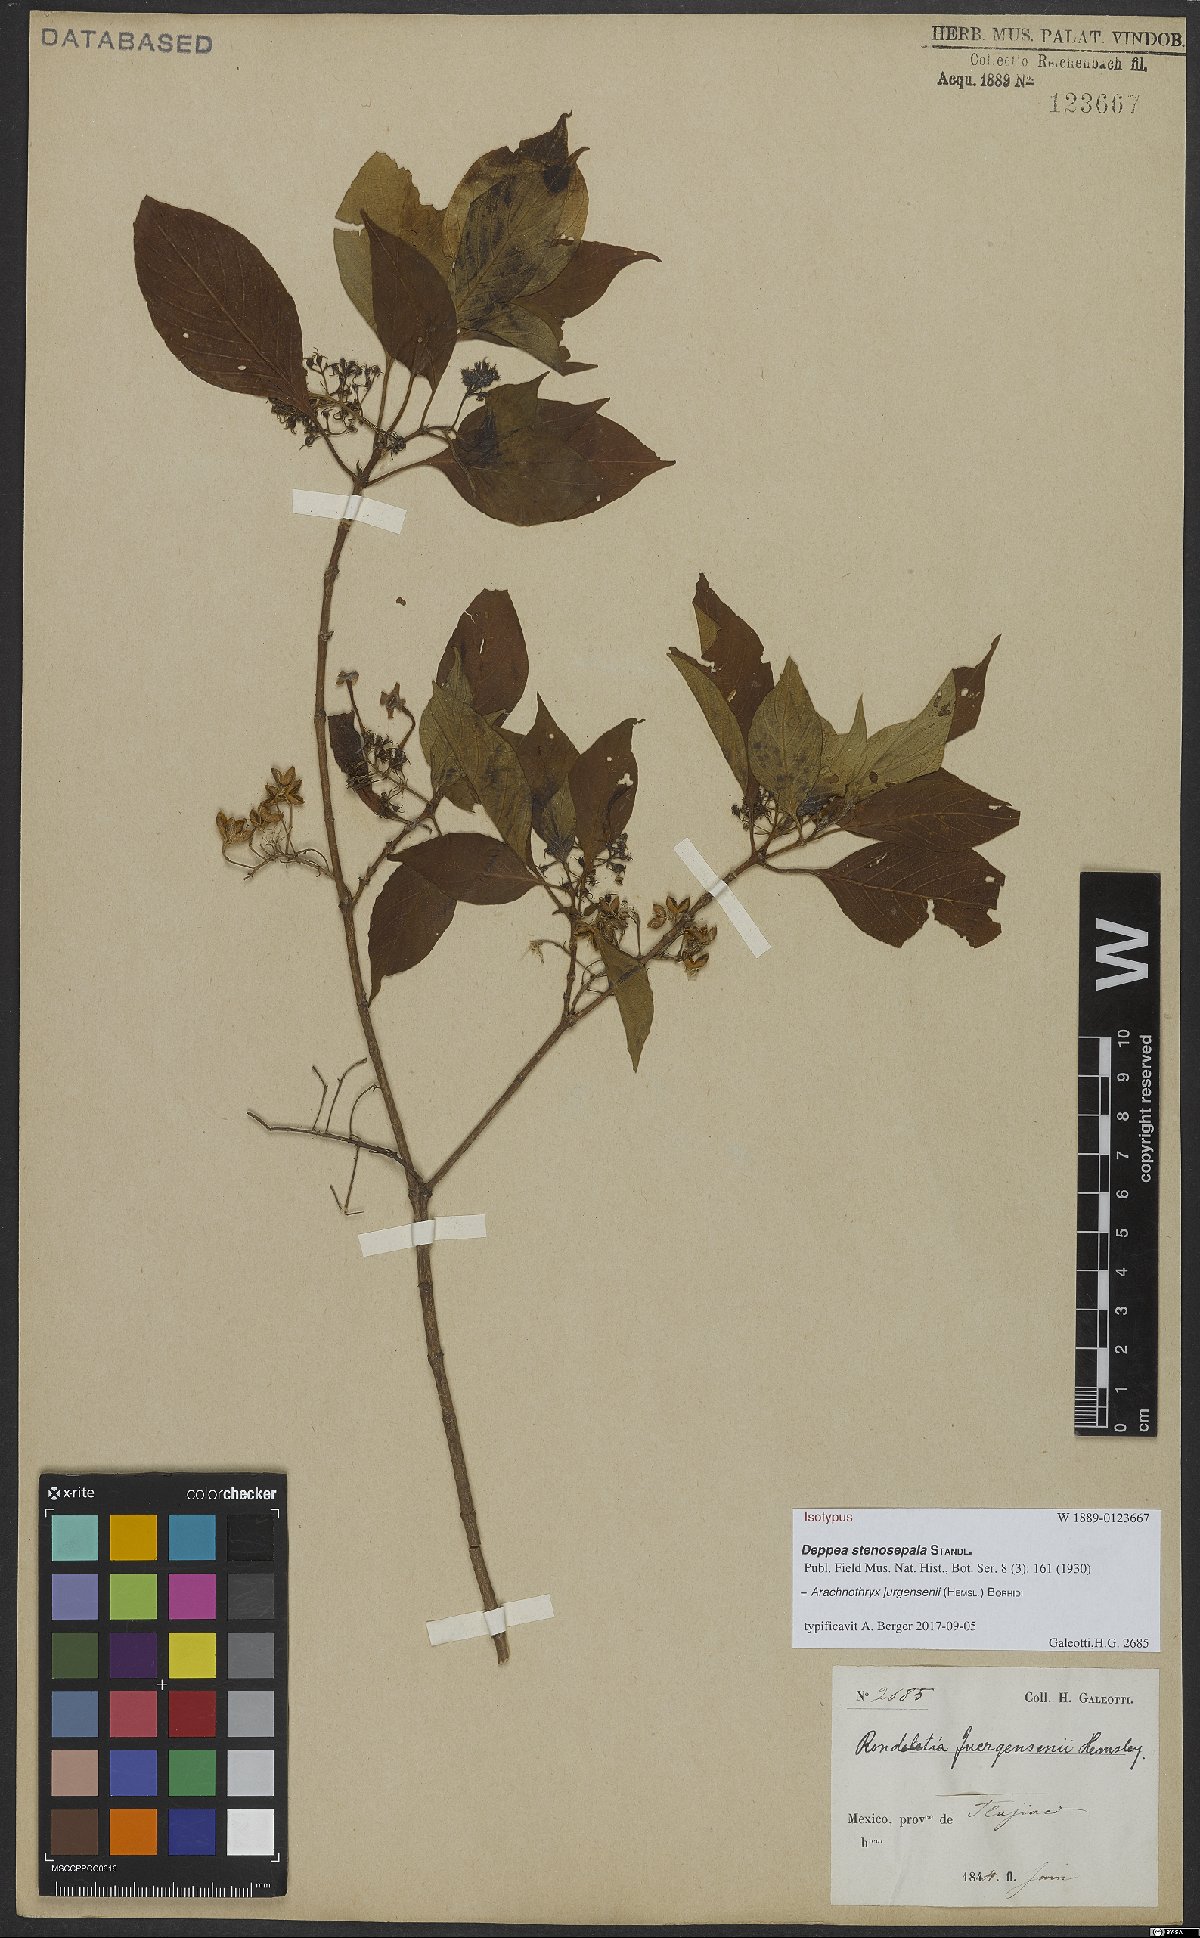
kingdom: Plantae
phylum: Tracheophyta
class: Magnoliopsida
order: Gentianales
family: Rubiaceae
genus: Arachnothryx
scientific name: Arachnothryx jurgensenii
